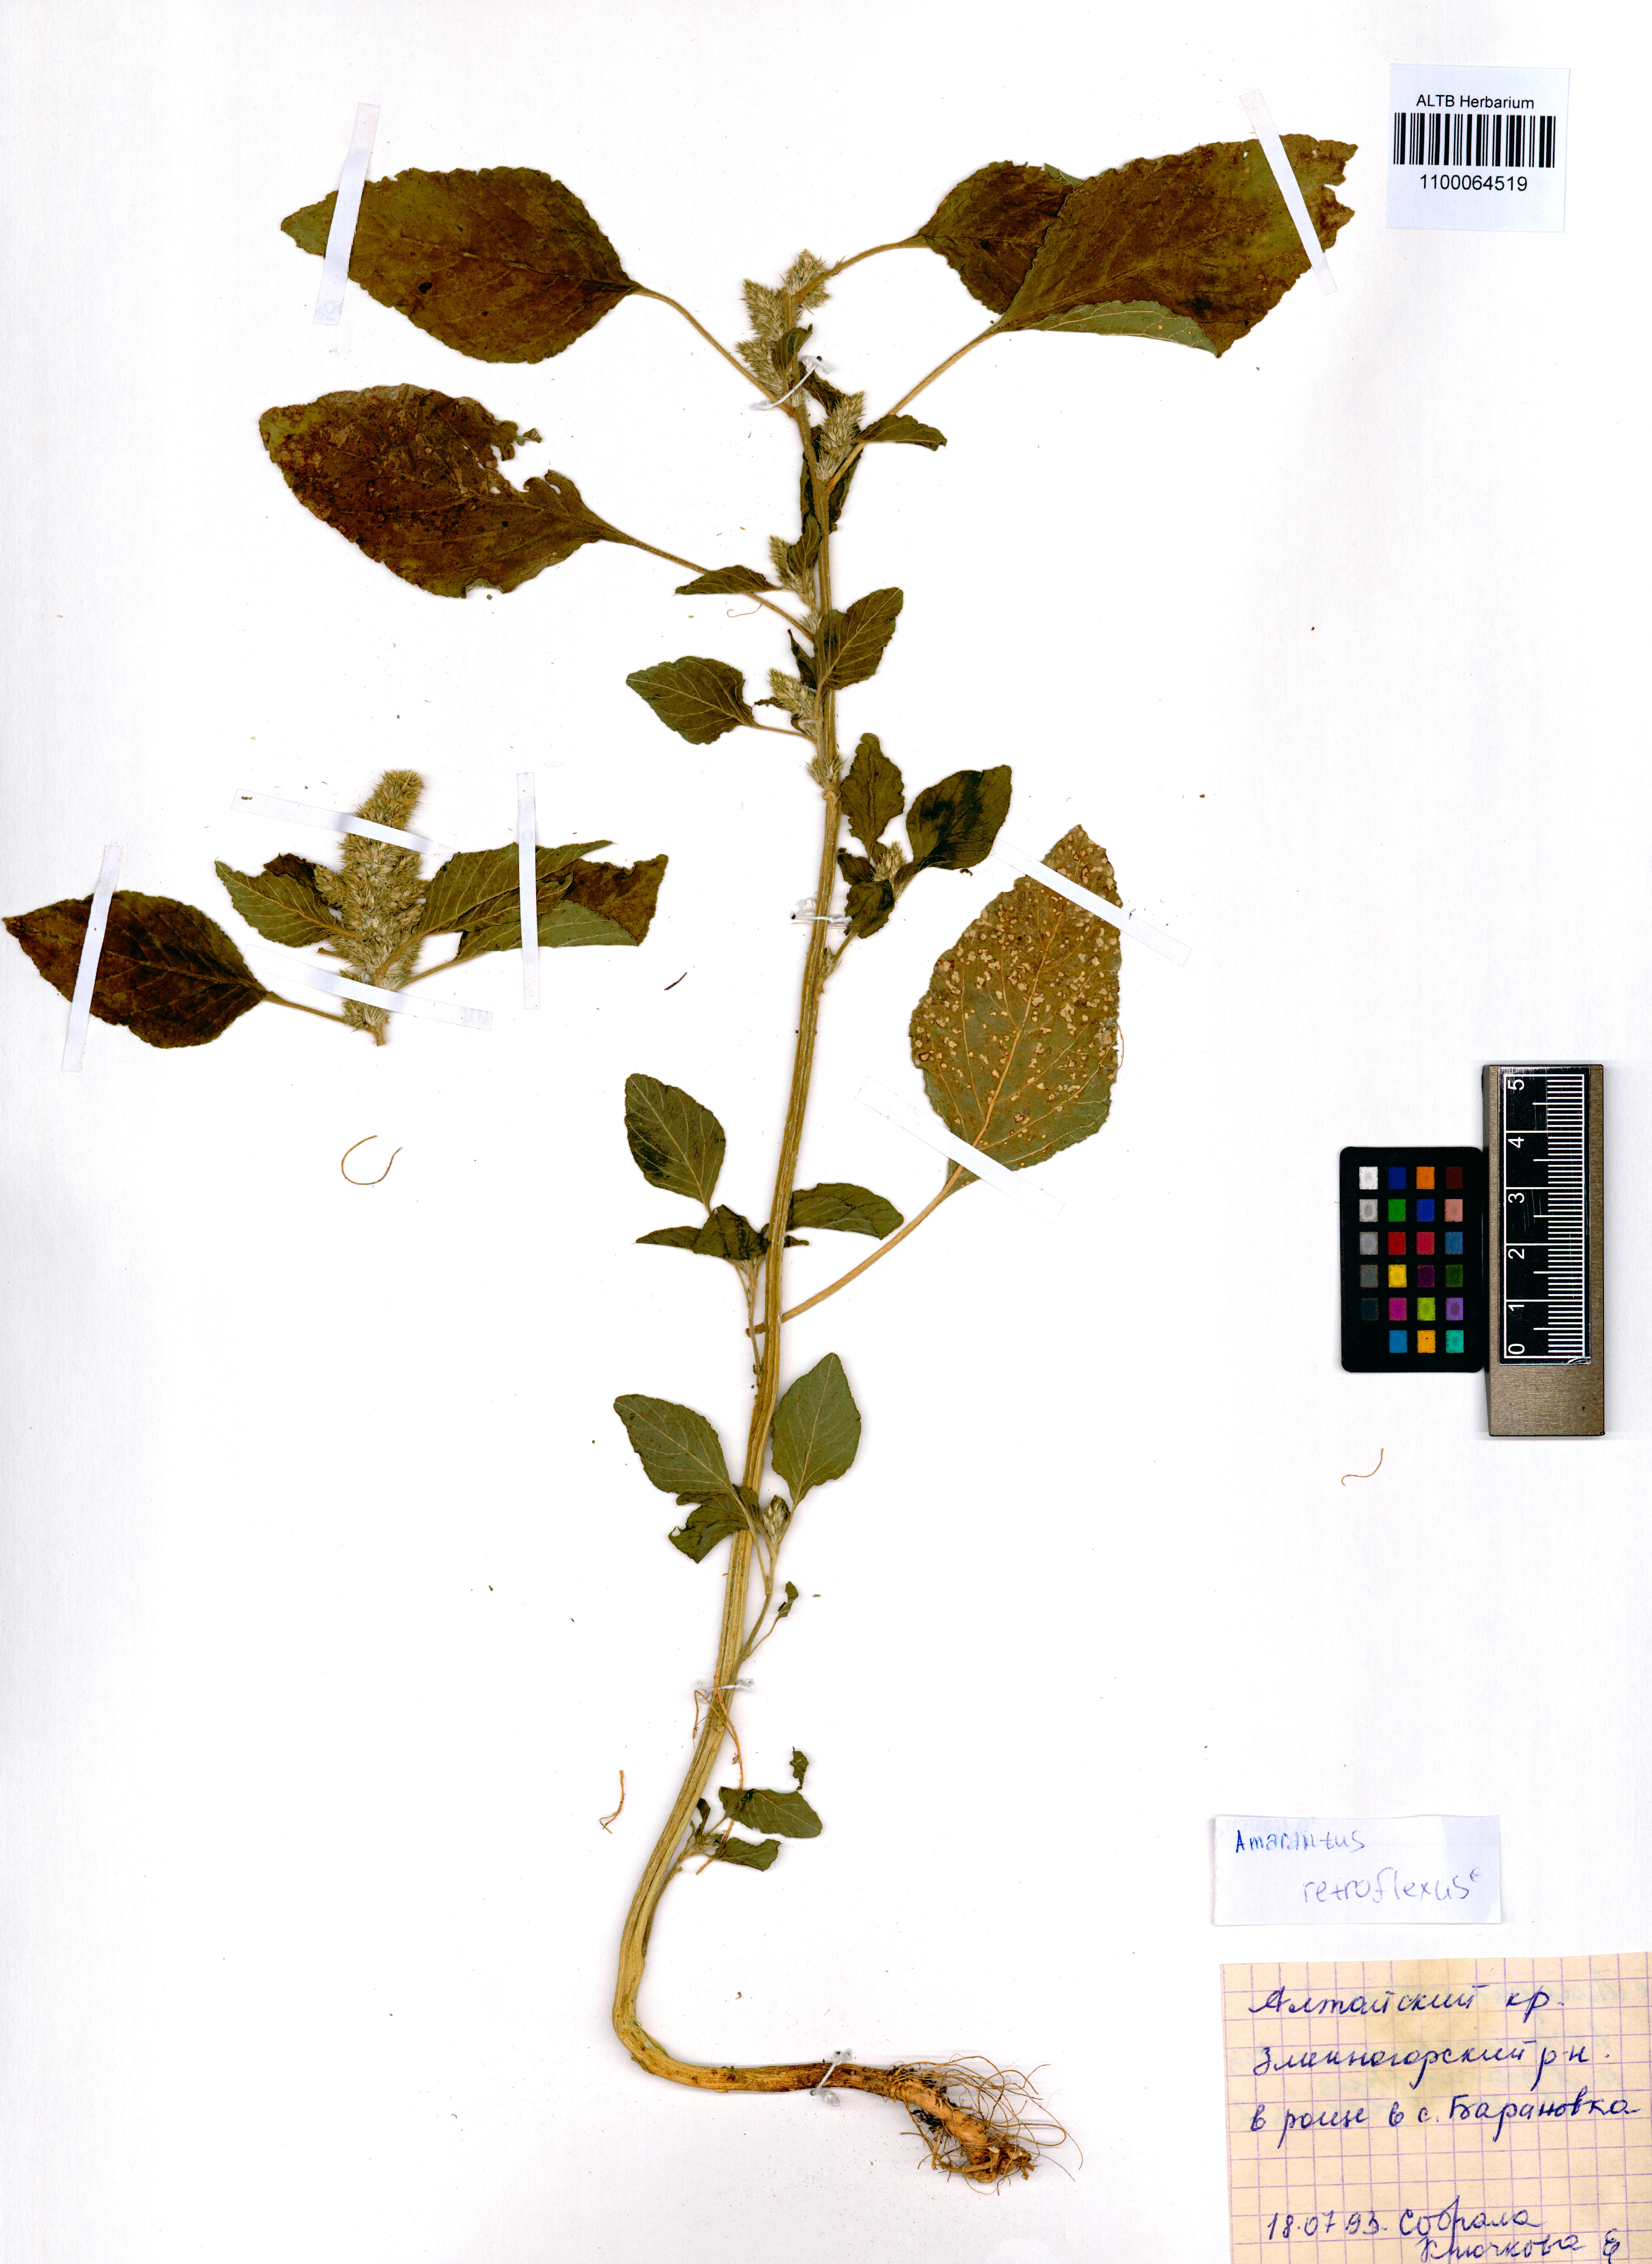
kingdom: Plantae
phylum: Tracheophyta
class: Magnoliopsida
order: Caryophyllales
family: Amaranthaceae
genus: Amaranthus
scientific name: Amaranthus retroflexus
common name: Redroot amaranth
